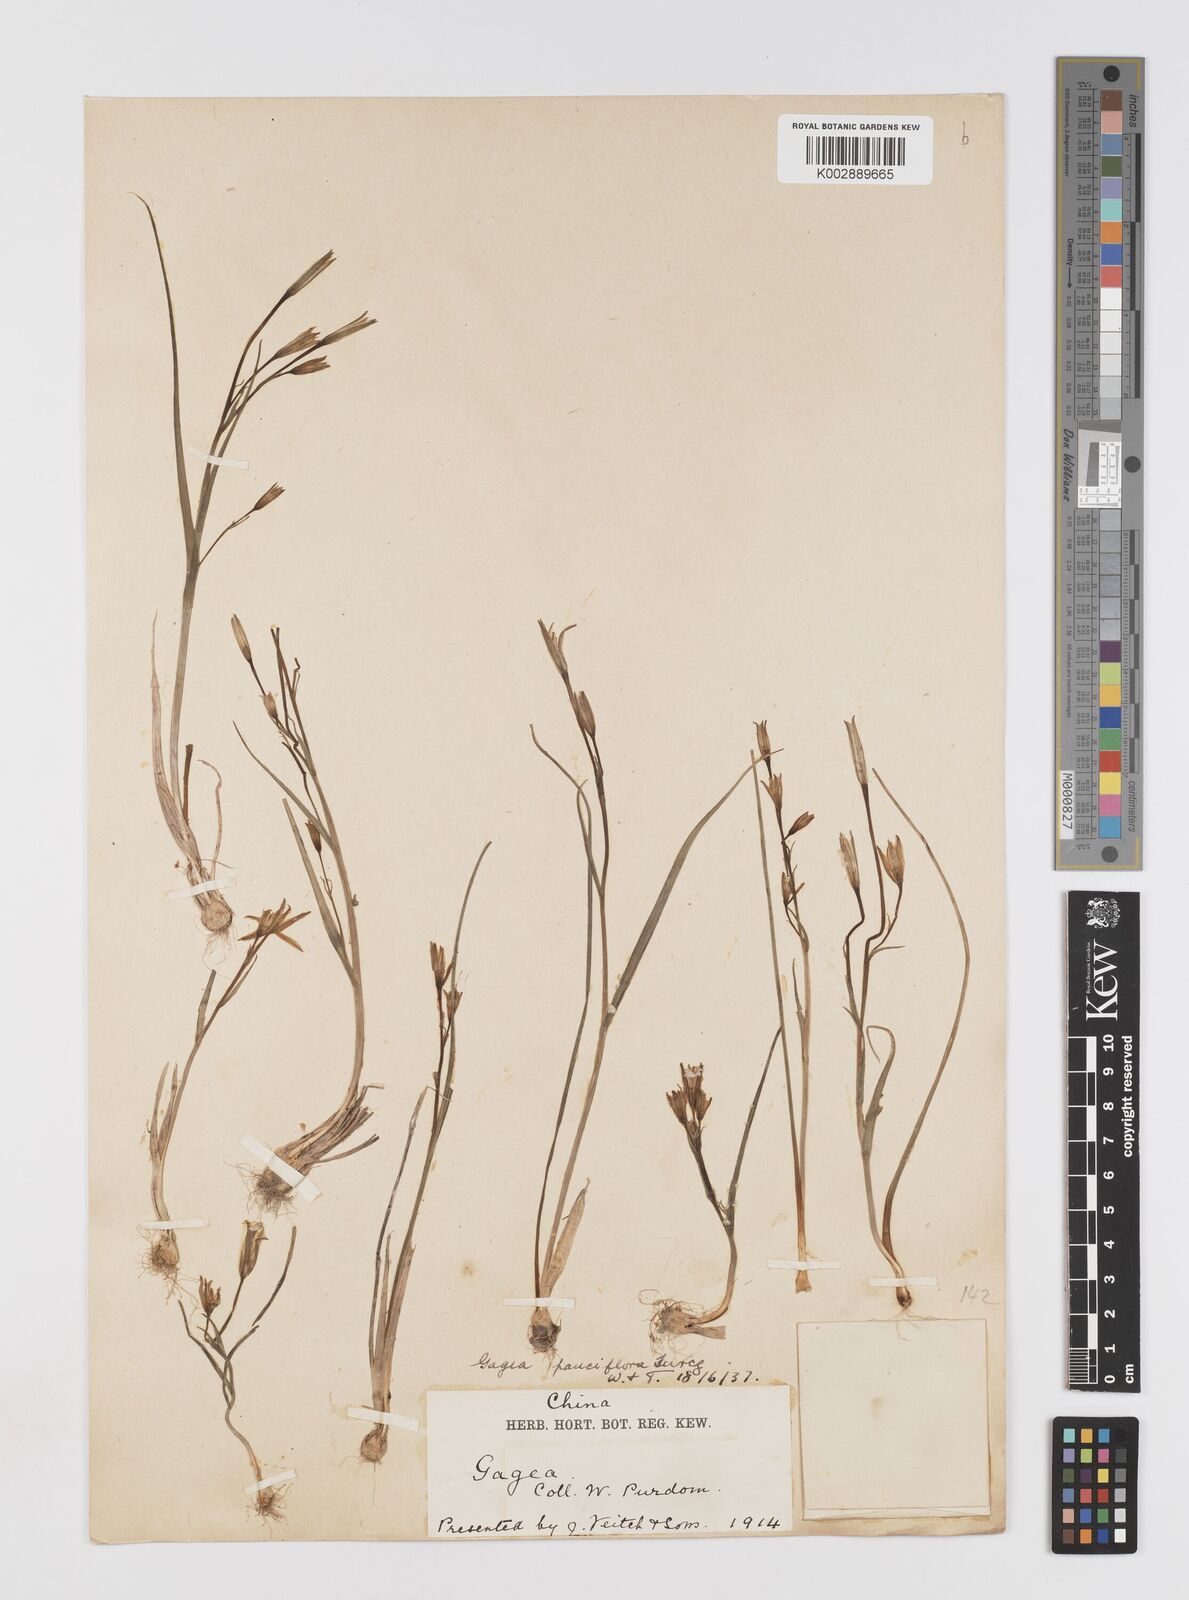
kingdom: Plantae
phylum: Tracheophyta
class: Liliopsida
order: Liliales
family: Liliaceae
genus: Gagea
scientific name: Gagea pauciflora
